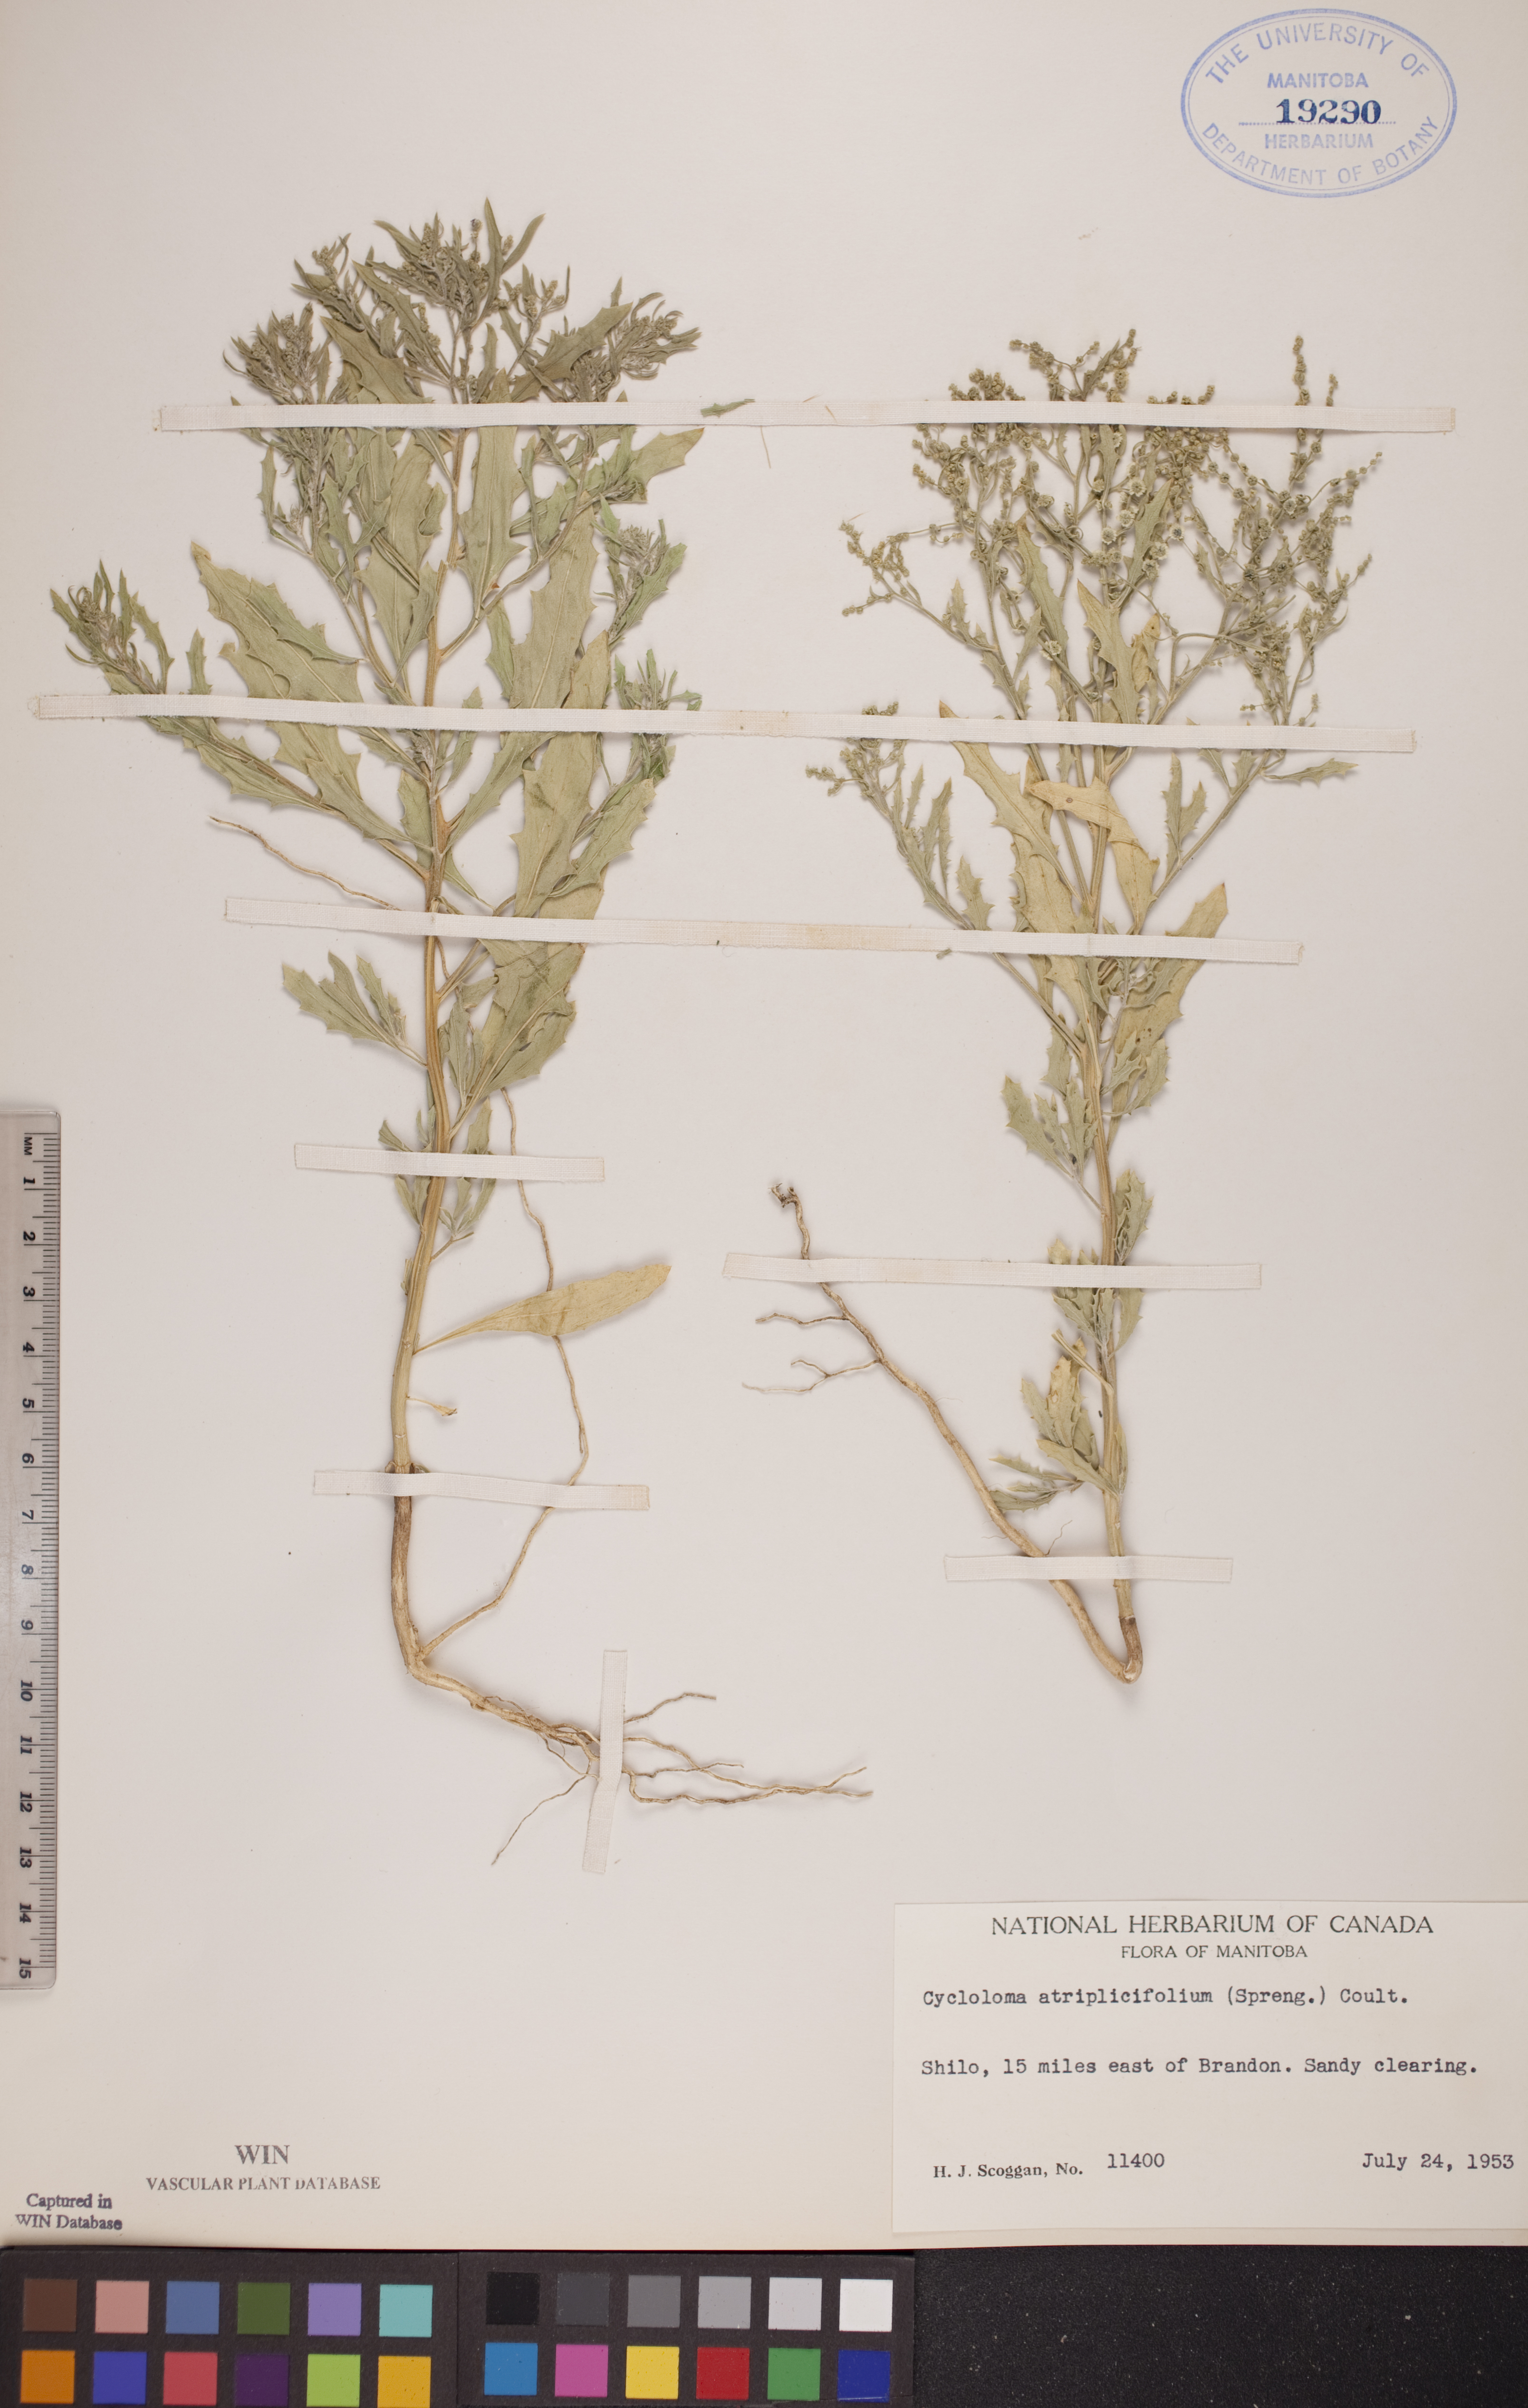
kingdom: Plantae
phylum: Tracheophyta
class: Magnoliopsida
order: Caryophyllales
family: Amaranthaceae
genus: Dysphania
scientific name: Dysphania atriplicifolia
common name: Plains tumbleweed
